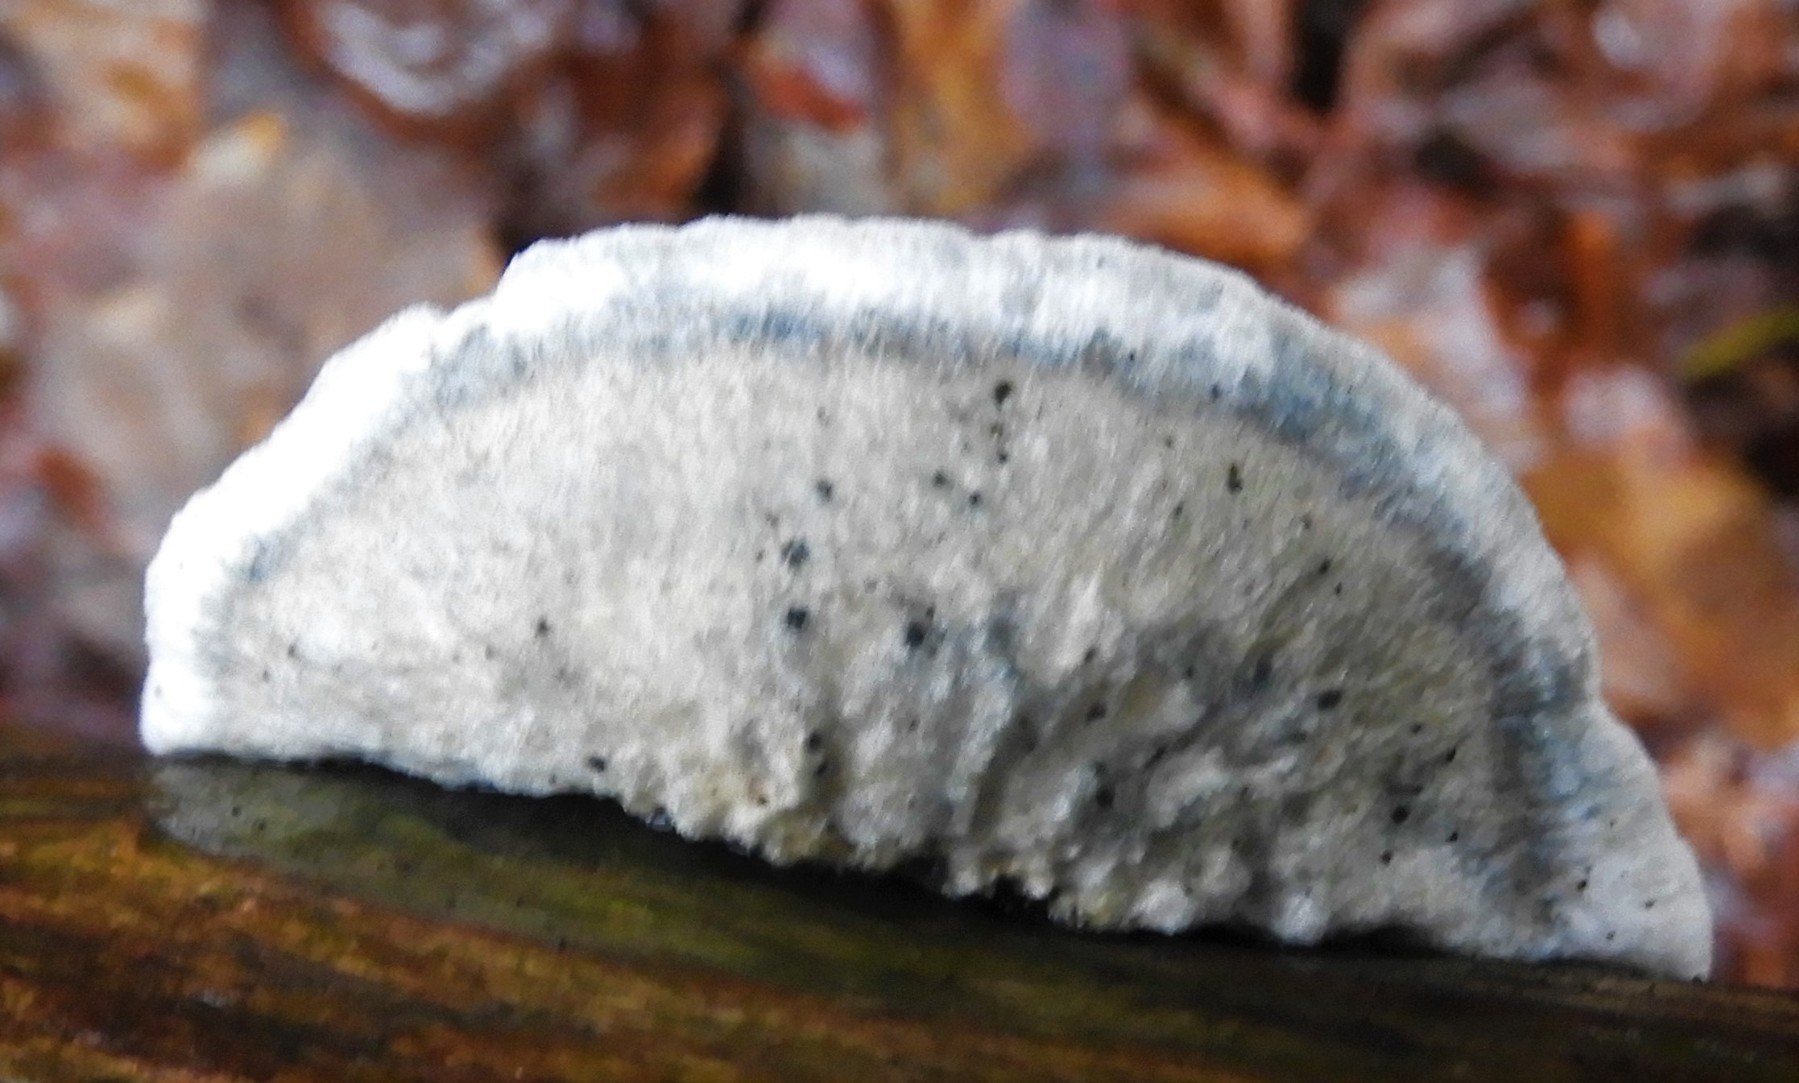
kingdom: Fungi
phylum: Basidiomycota
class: Agaricomycetes
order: Polyporales
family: Polyporaceae
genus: Cyanosporus
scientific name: Cyanosporus alni
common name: blegblå kødporesvamp
